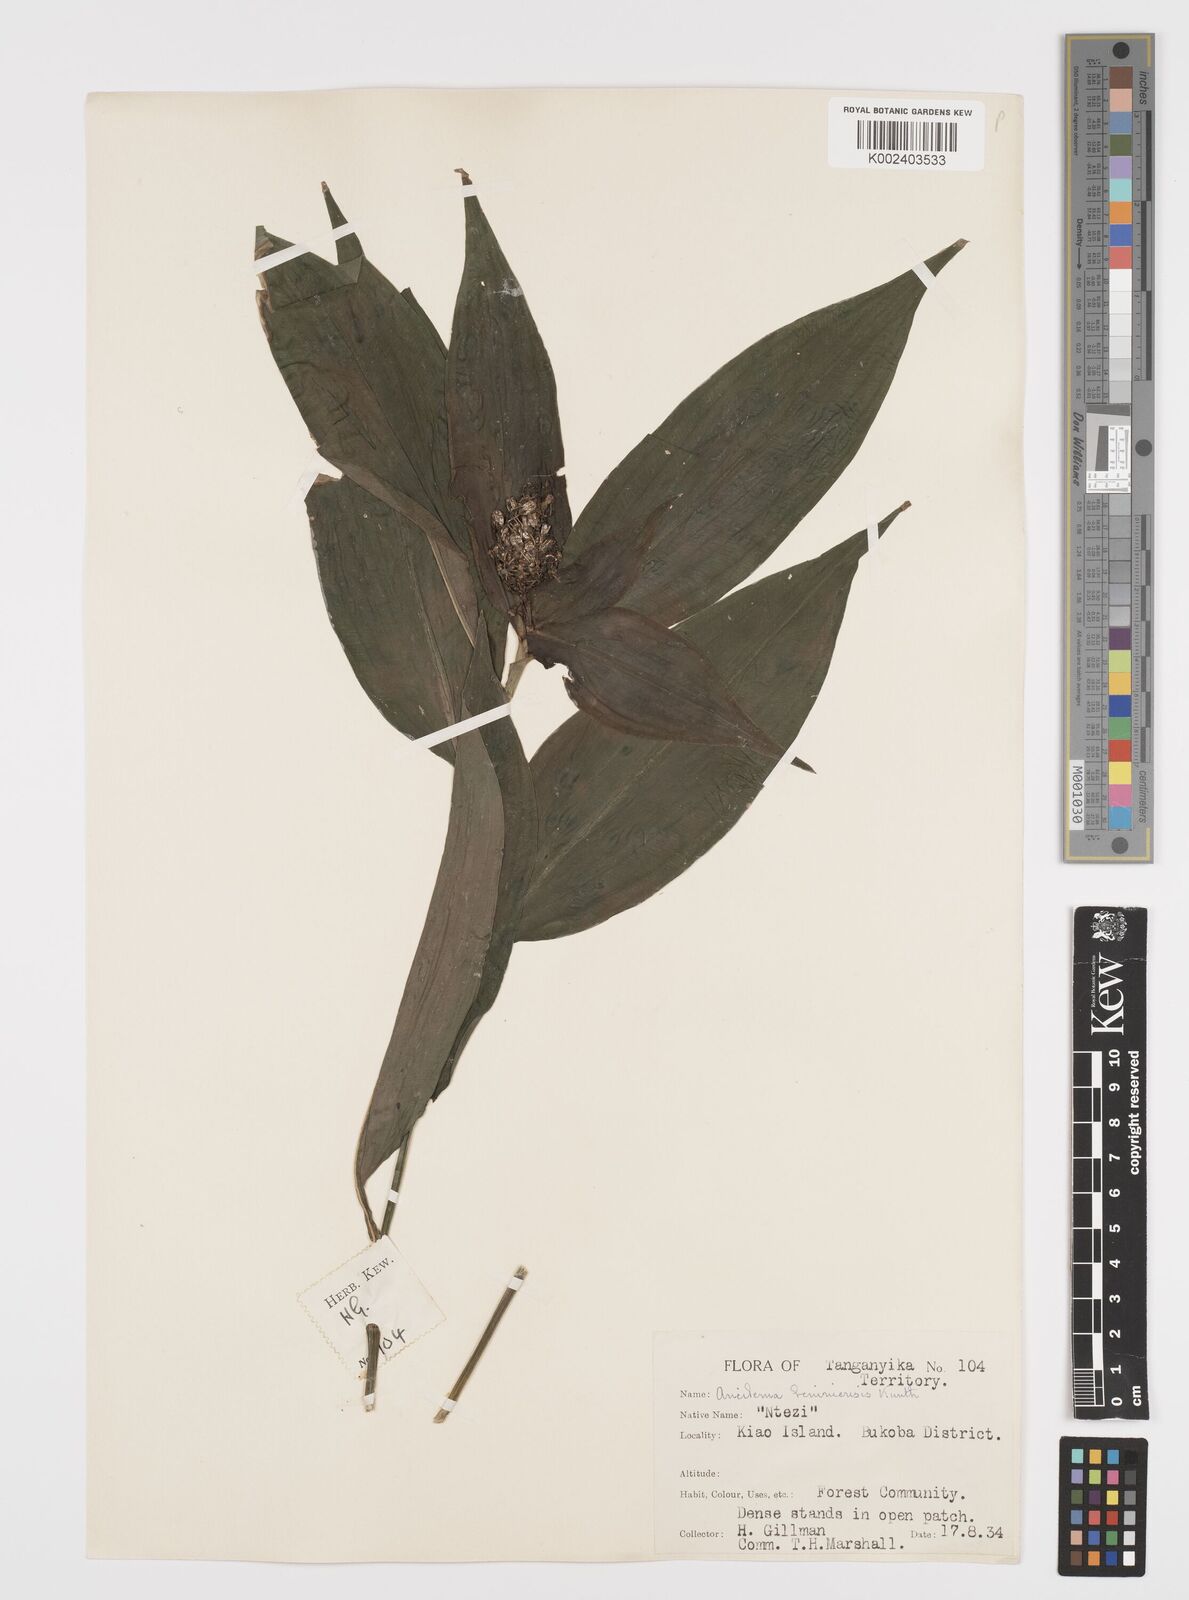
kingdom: Plantae
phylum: Tracheophyta
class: Liliopsida
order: Commelinales
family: Commelinaceae
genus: Aneilema
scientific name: Aneilema beniniense
